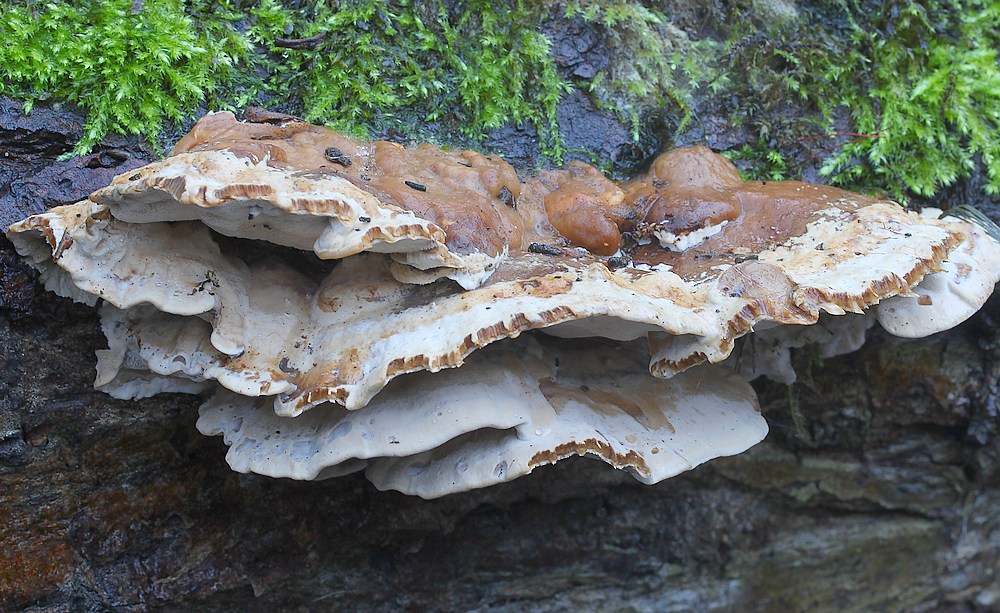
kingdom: Fungi
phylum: Basidiomycota
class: Agaricomycetes
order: Polyporales
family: Phanerochaetaceae
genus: Bjerkandera
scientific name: Bjerkandera fumosa
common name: grågul sodporesvamp
